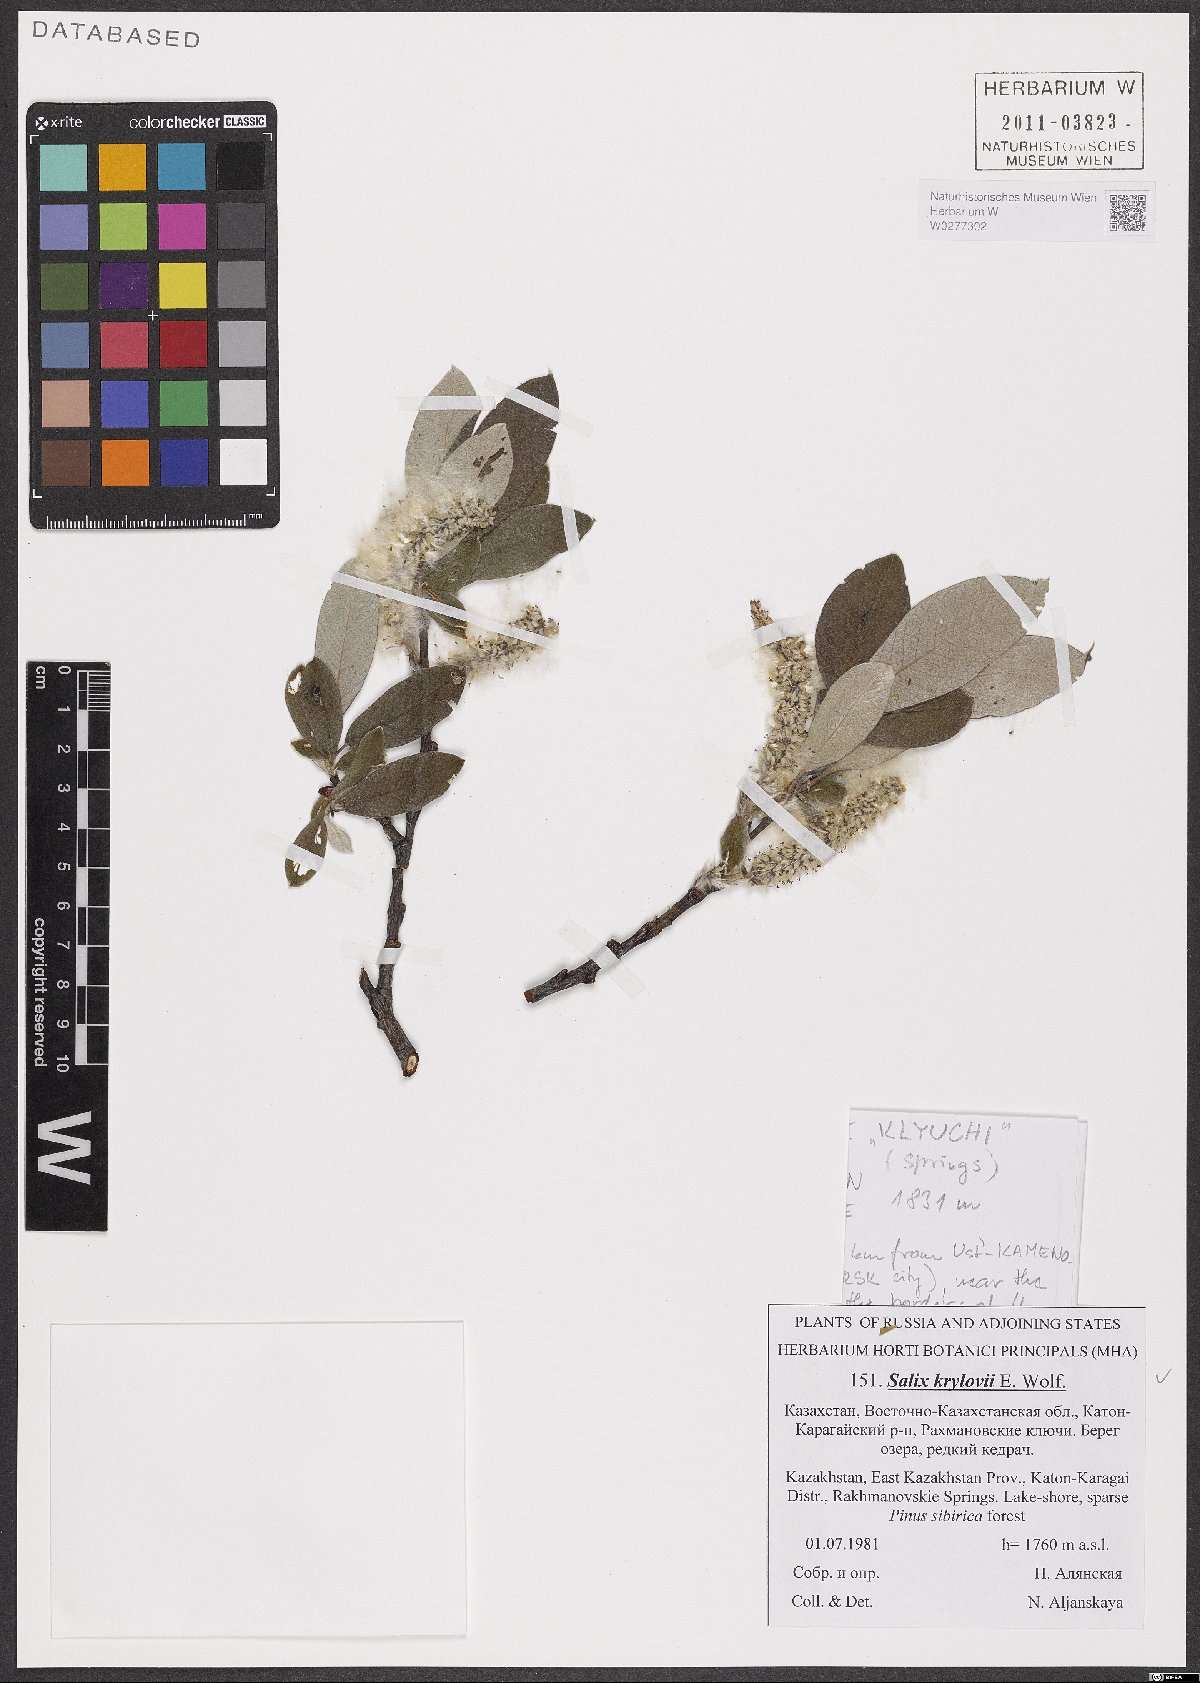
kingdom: Plantae
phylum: Tracheophyta
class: Magnoliopsida
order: Malpighiales
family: Salicaceae
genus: Salix
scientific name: Salix krylovii
